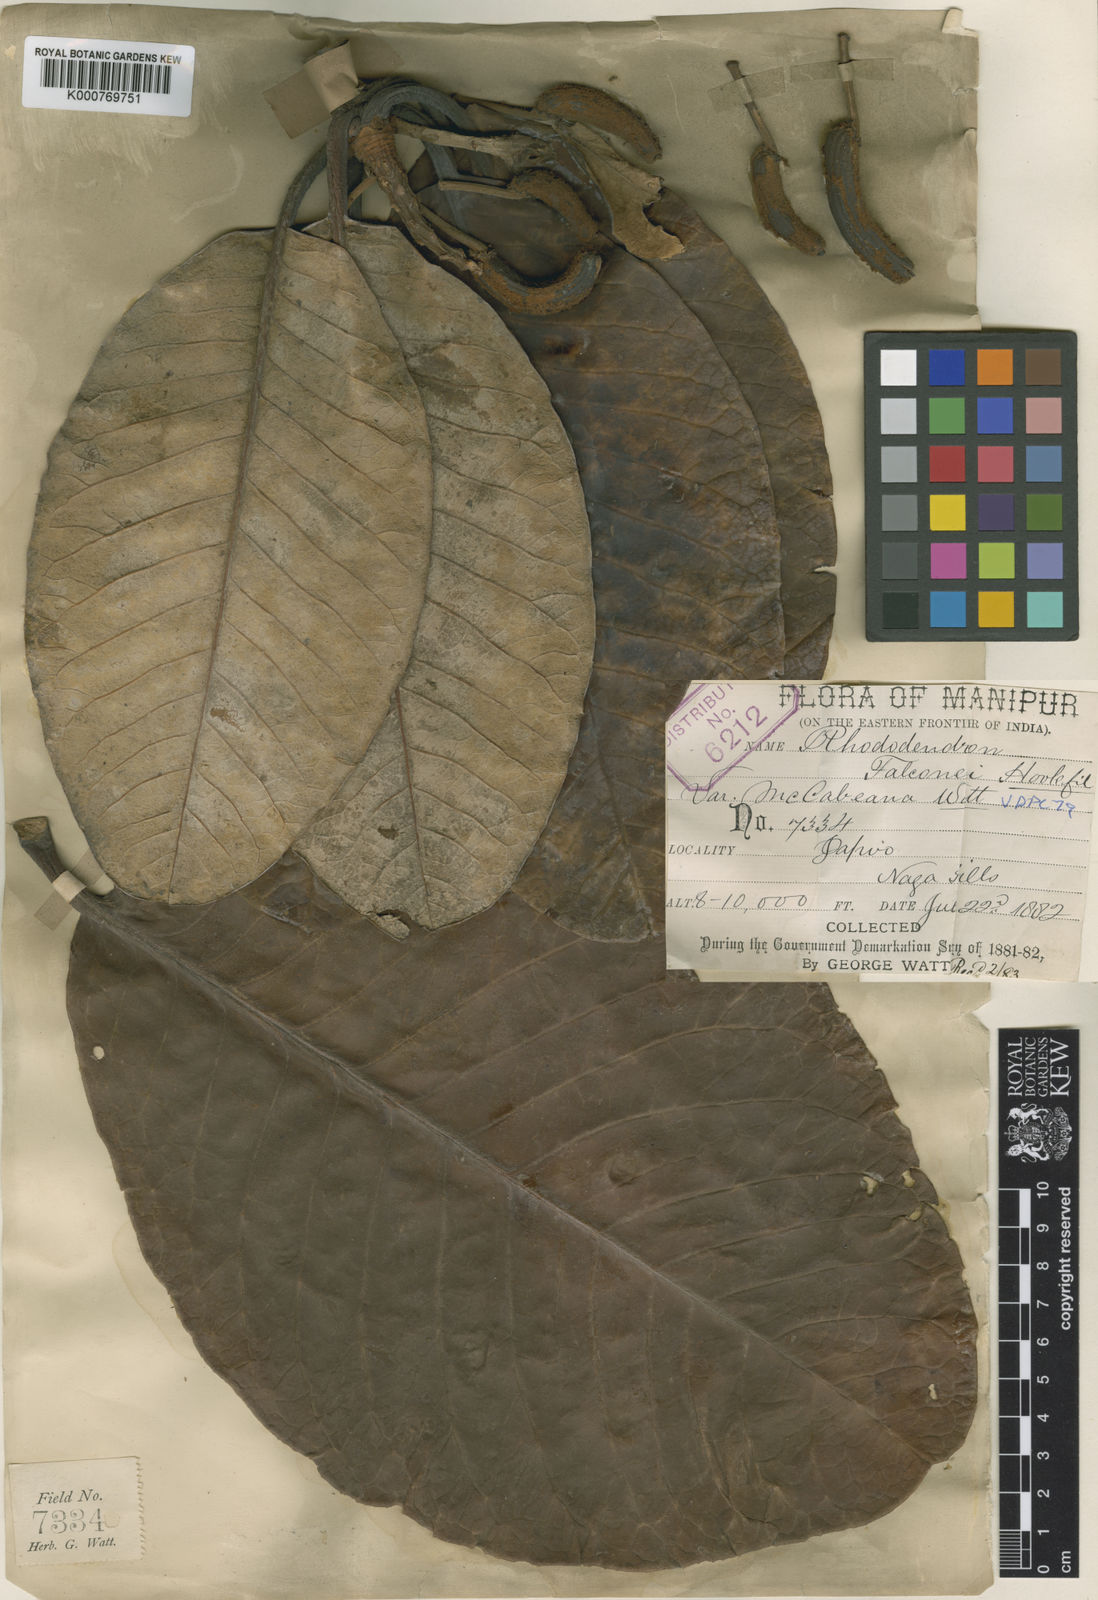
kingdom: Plantae
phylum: Tracheophyta
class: Magnoliopsida
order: Ericales
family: Ericaceae
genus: Rhododendron
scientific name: Rhododendron macabeanum
